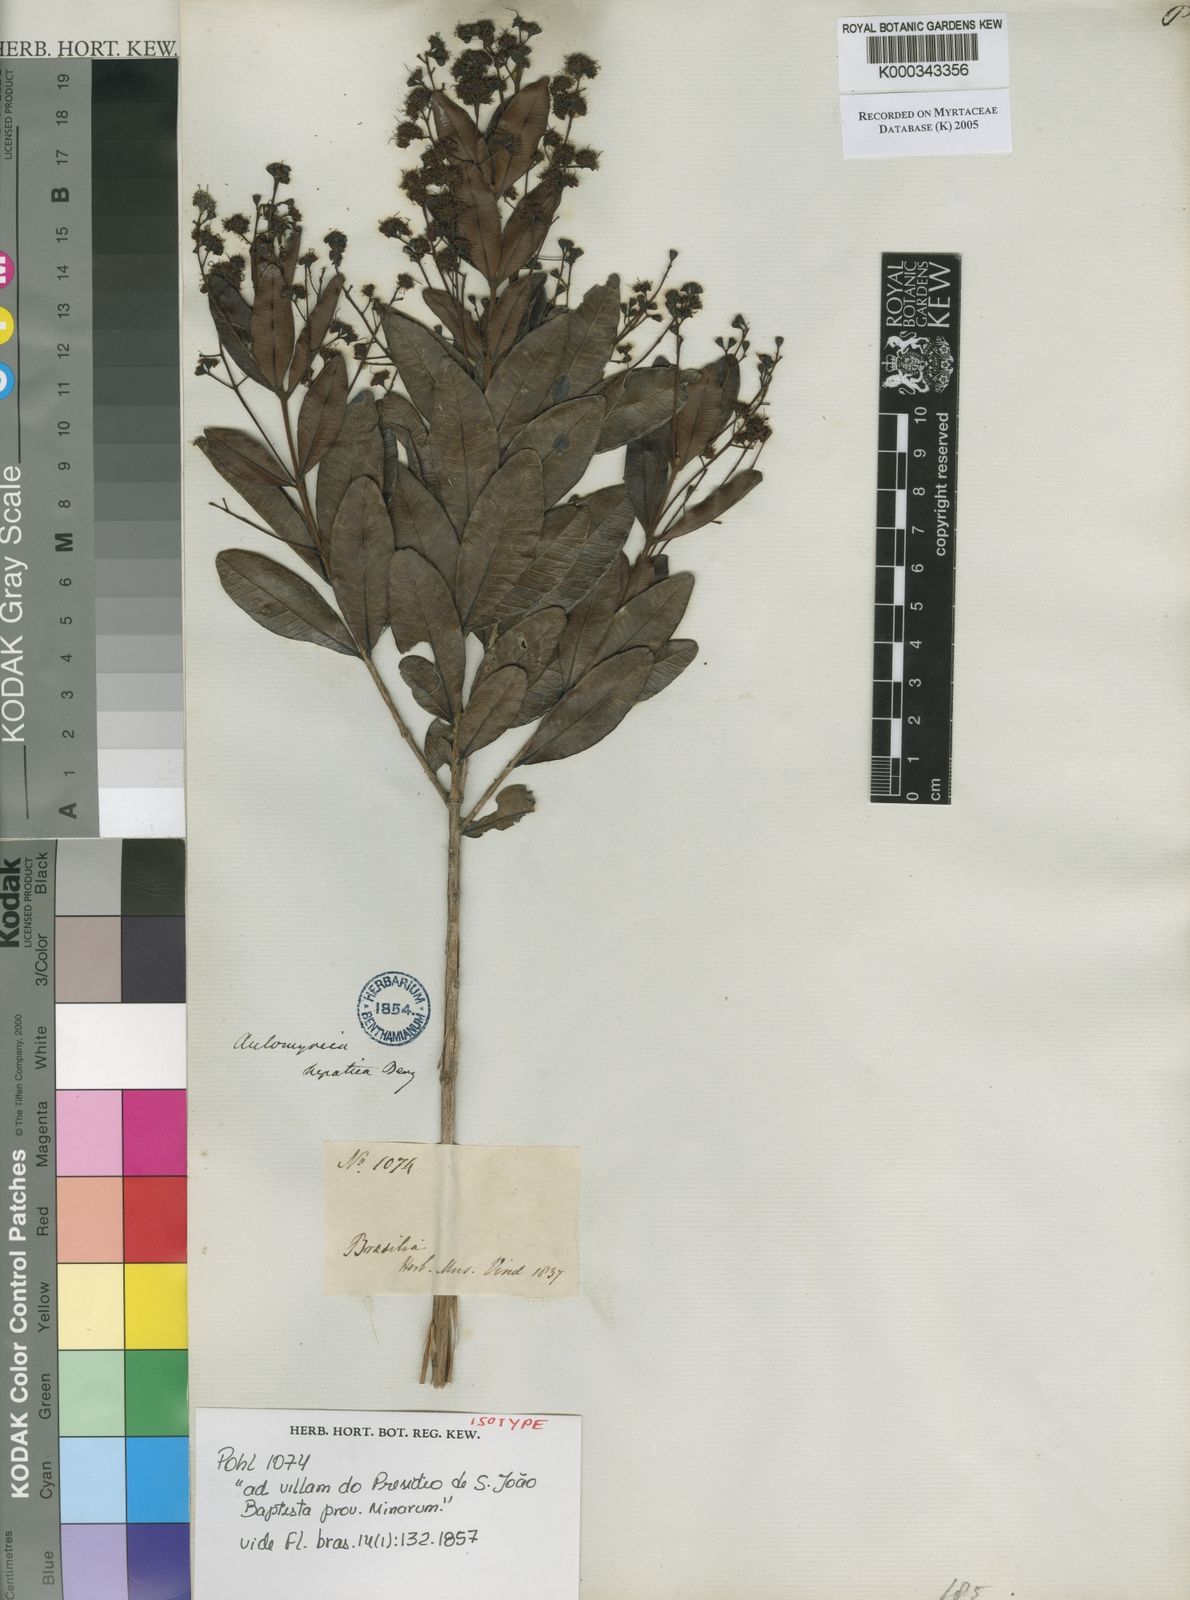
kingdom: Plantae
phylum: Tracheophyta
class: Magnoliopsida
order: Myrtales
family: Myrtaceae
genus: Myrcia
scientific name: Myrcia guianensis
